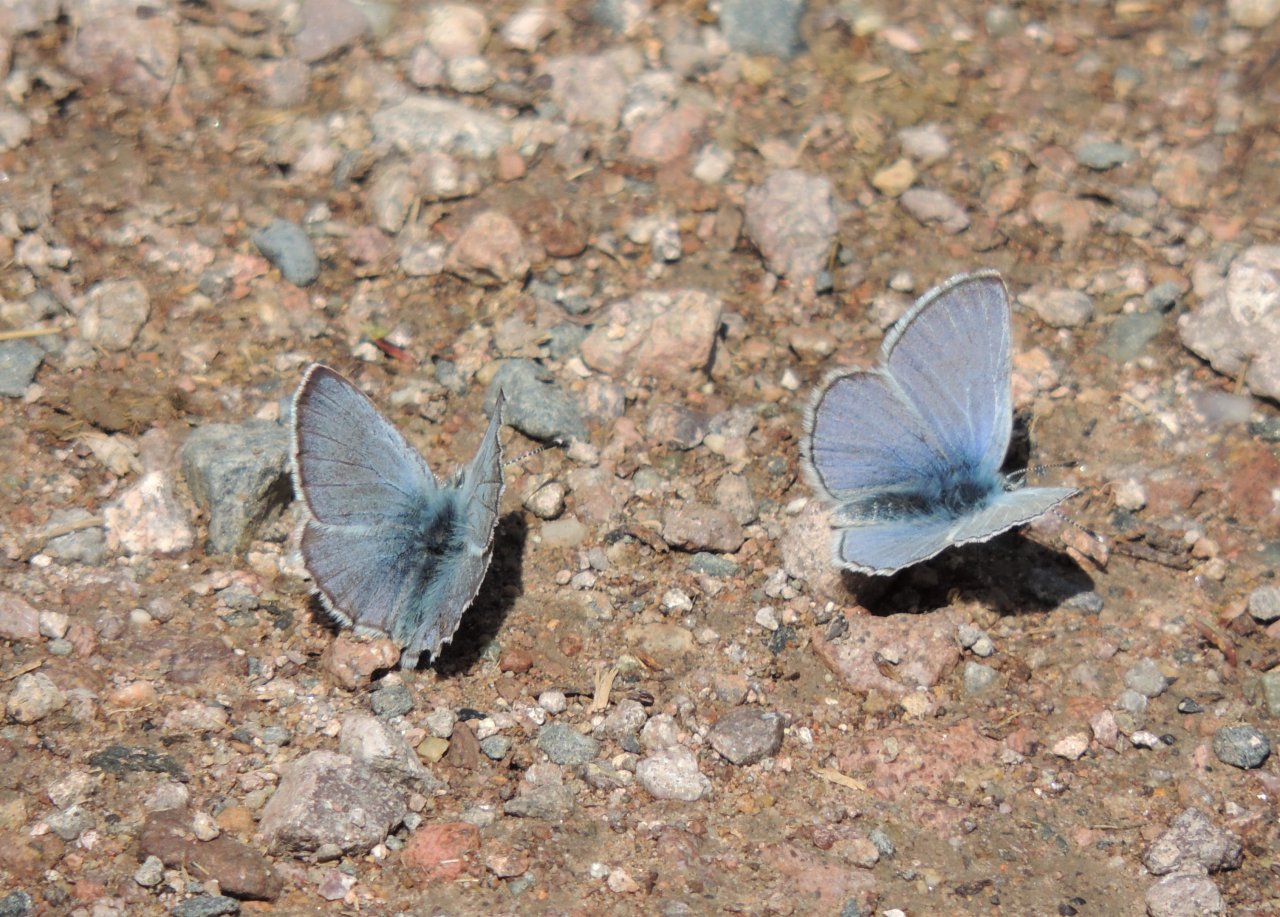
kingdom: Animalia
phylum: Arthropoda
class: Insecta
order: Lepidoptera
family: Lycaenidae
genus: Glaucopsyche
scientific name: Glaucopsyche lygdamus
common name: Silvery Blue
